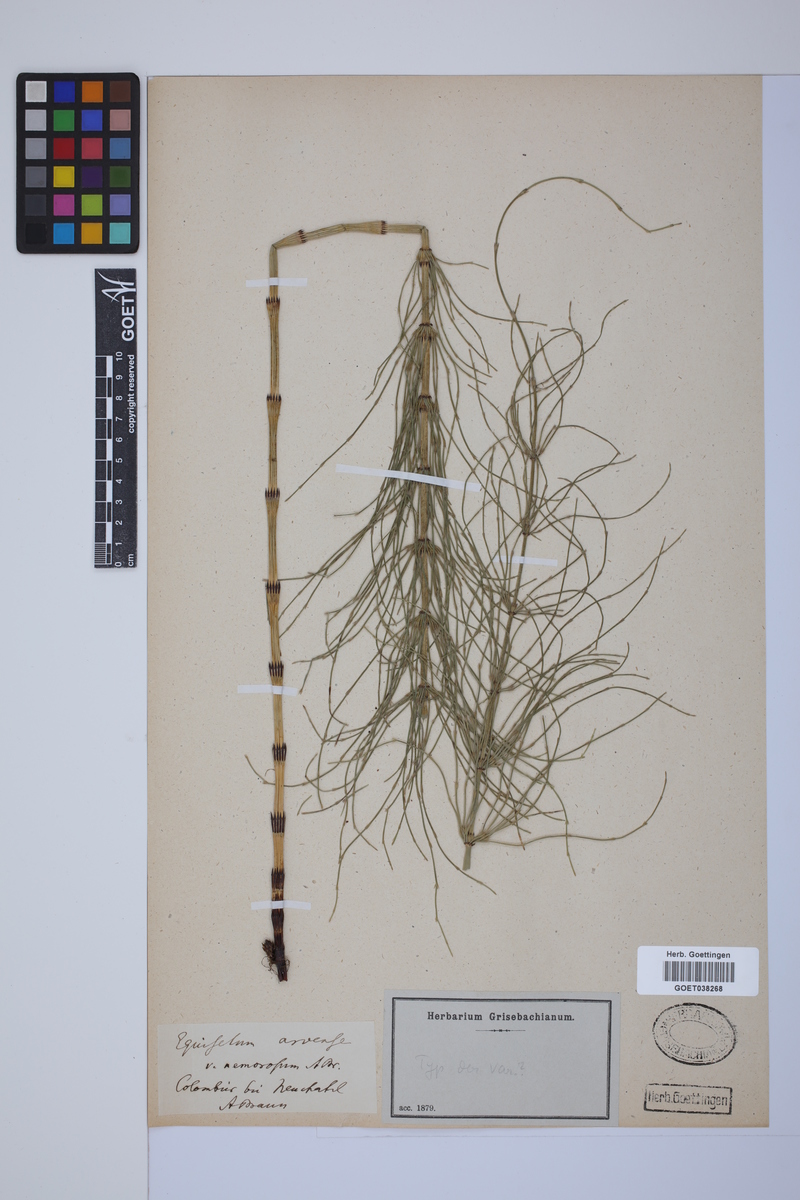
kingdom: Plantae
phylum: Tracheophyta
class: Polypodiopsida
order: Equisetales
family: Equisetaceae
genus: Equisetum
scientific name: Equisetum arvense
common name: Field horsetail
